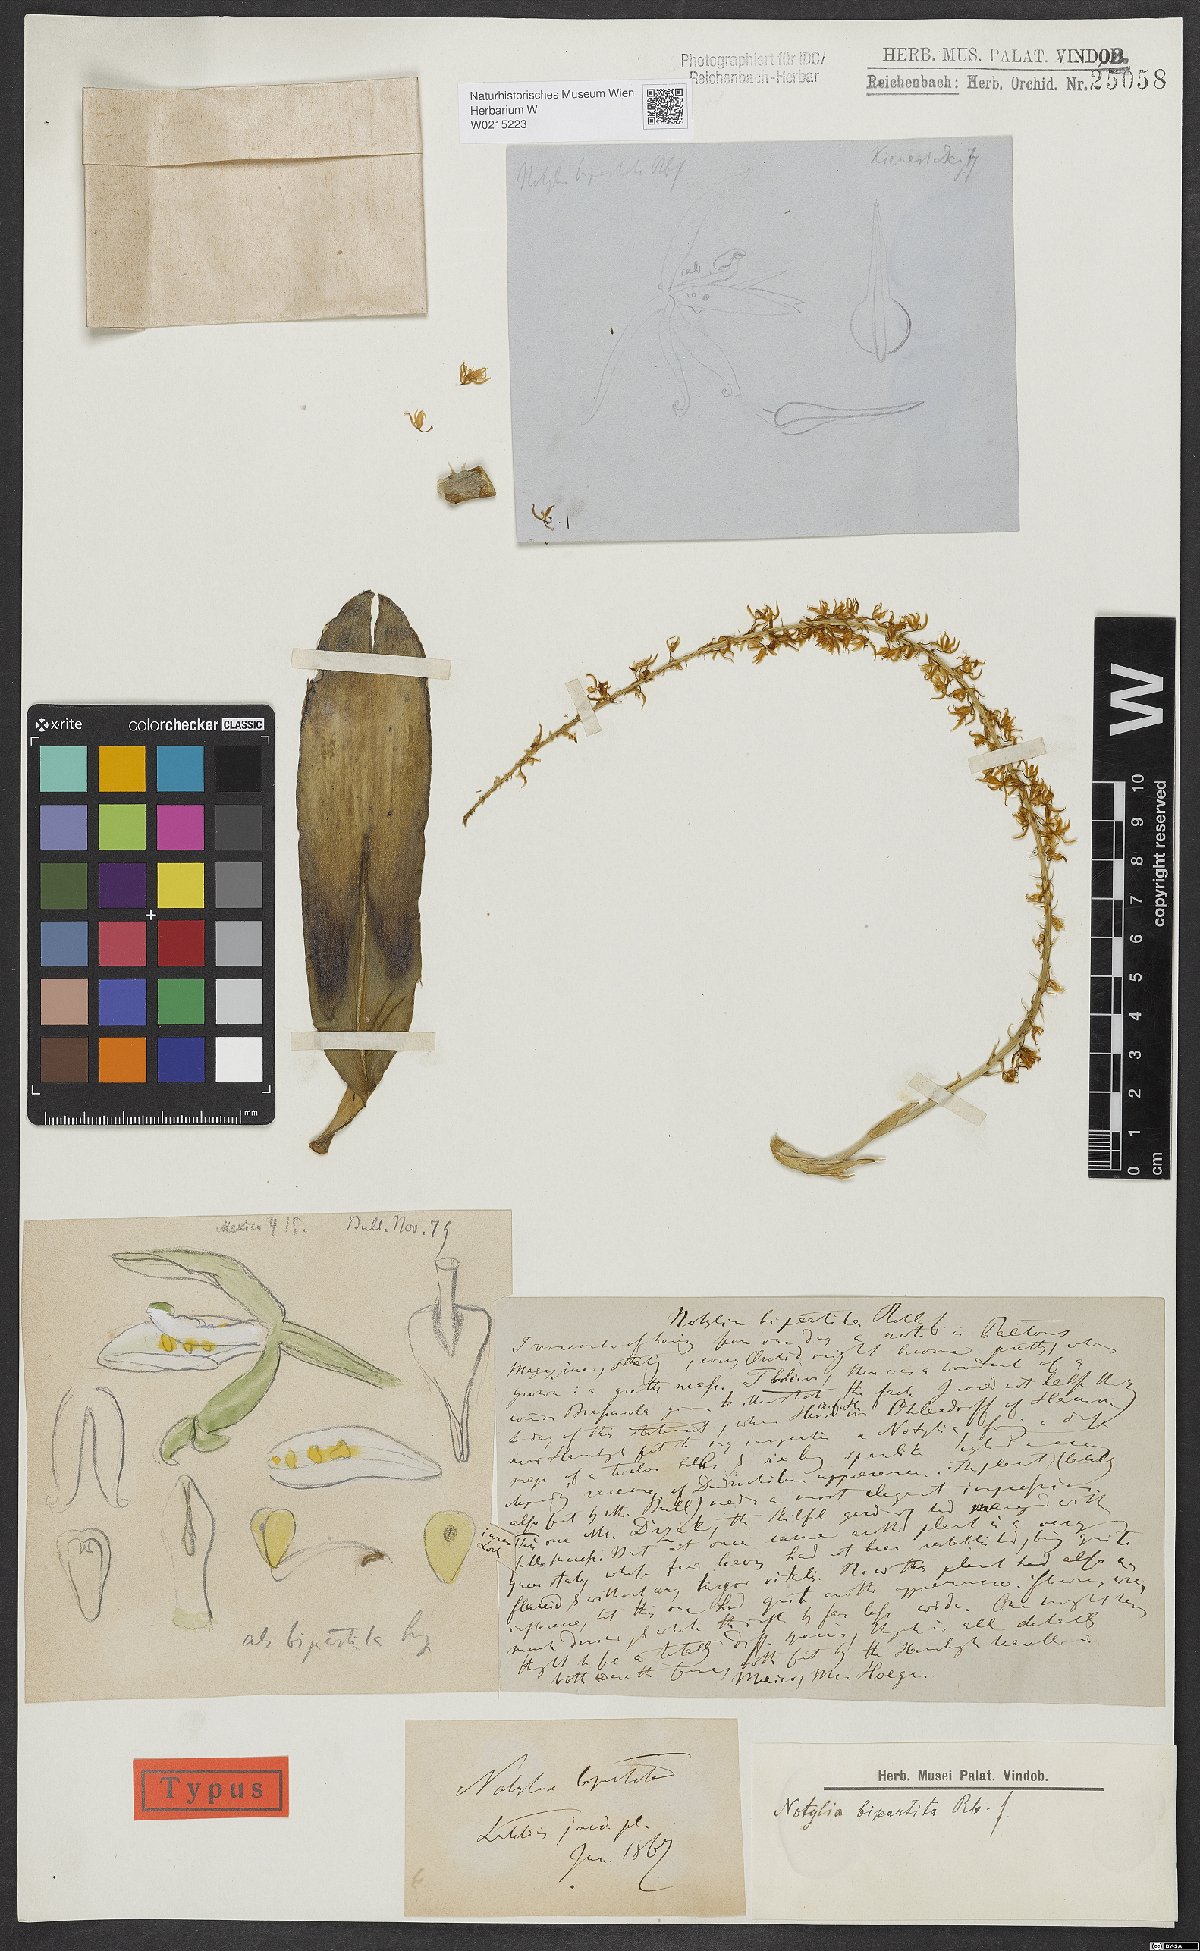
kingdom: Plantae
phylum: Tracheophyta
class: Liliopsida
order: Asparagales
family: Orchidaceae
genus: Notylia
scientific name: Notylia bipartita
